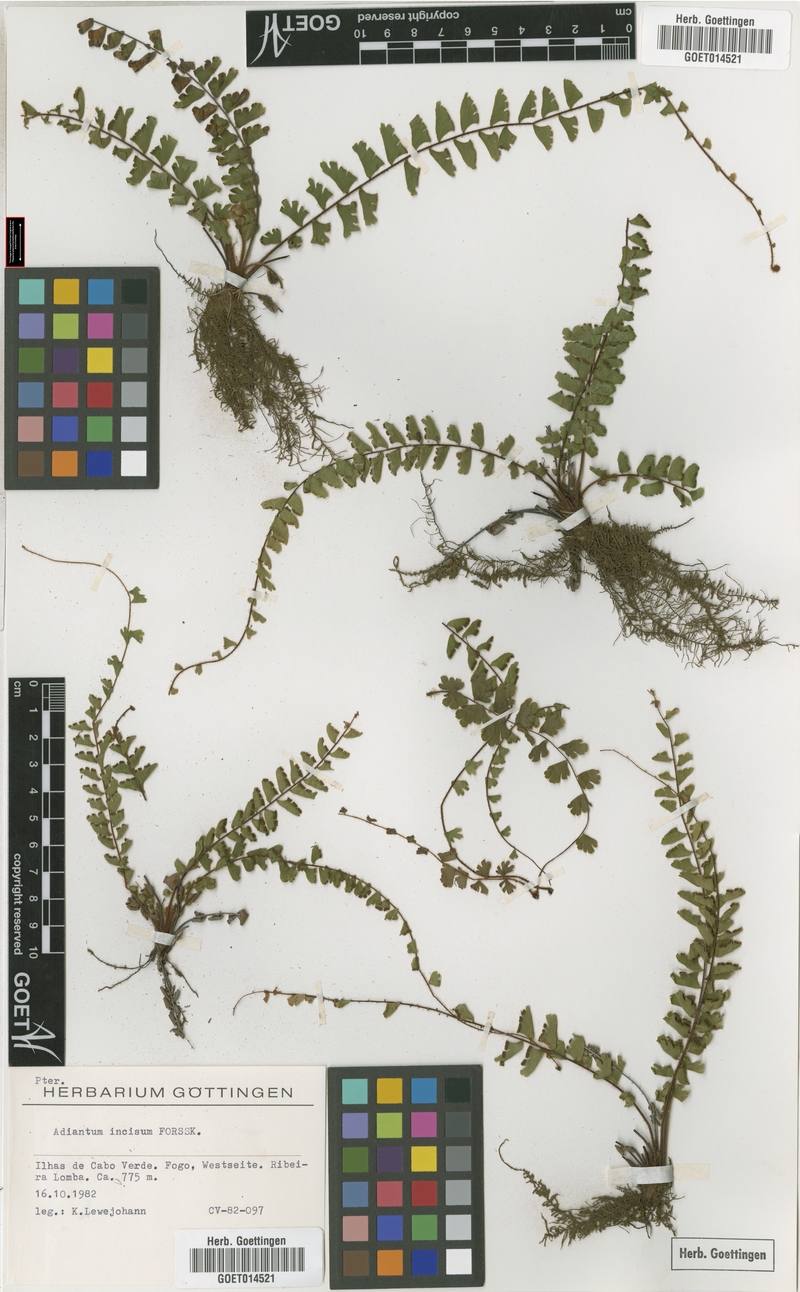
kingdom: Plantae
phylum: Tracheophyta
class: Polypodiopsida
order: Polypodiales
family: Pteridaceae
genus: Adiantum
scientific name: Adiantum incisum
